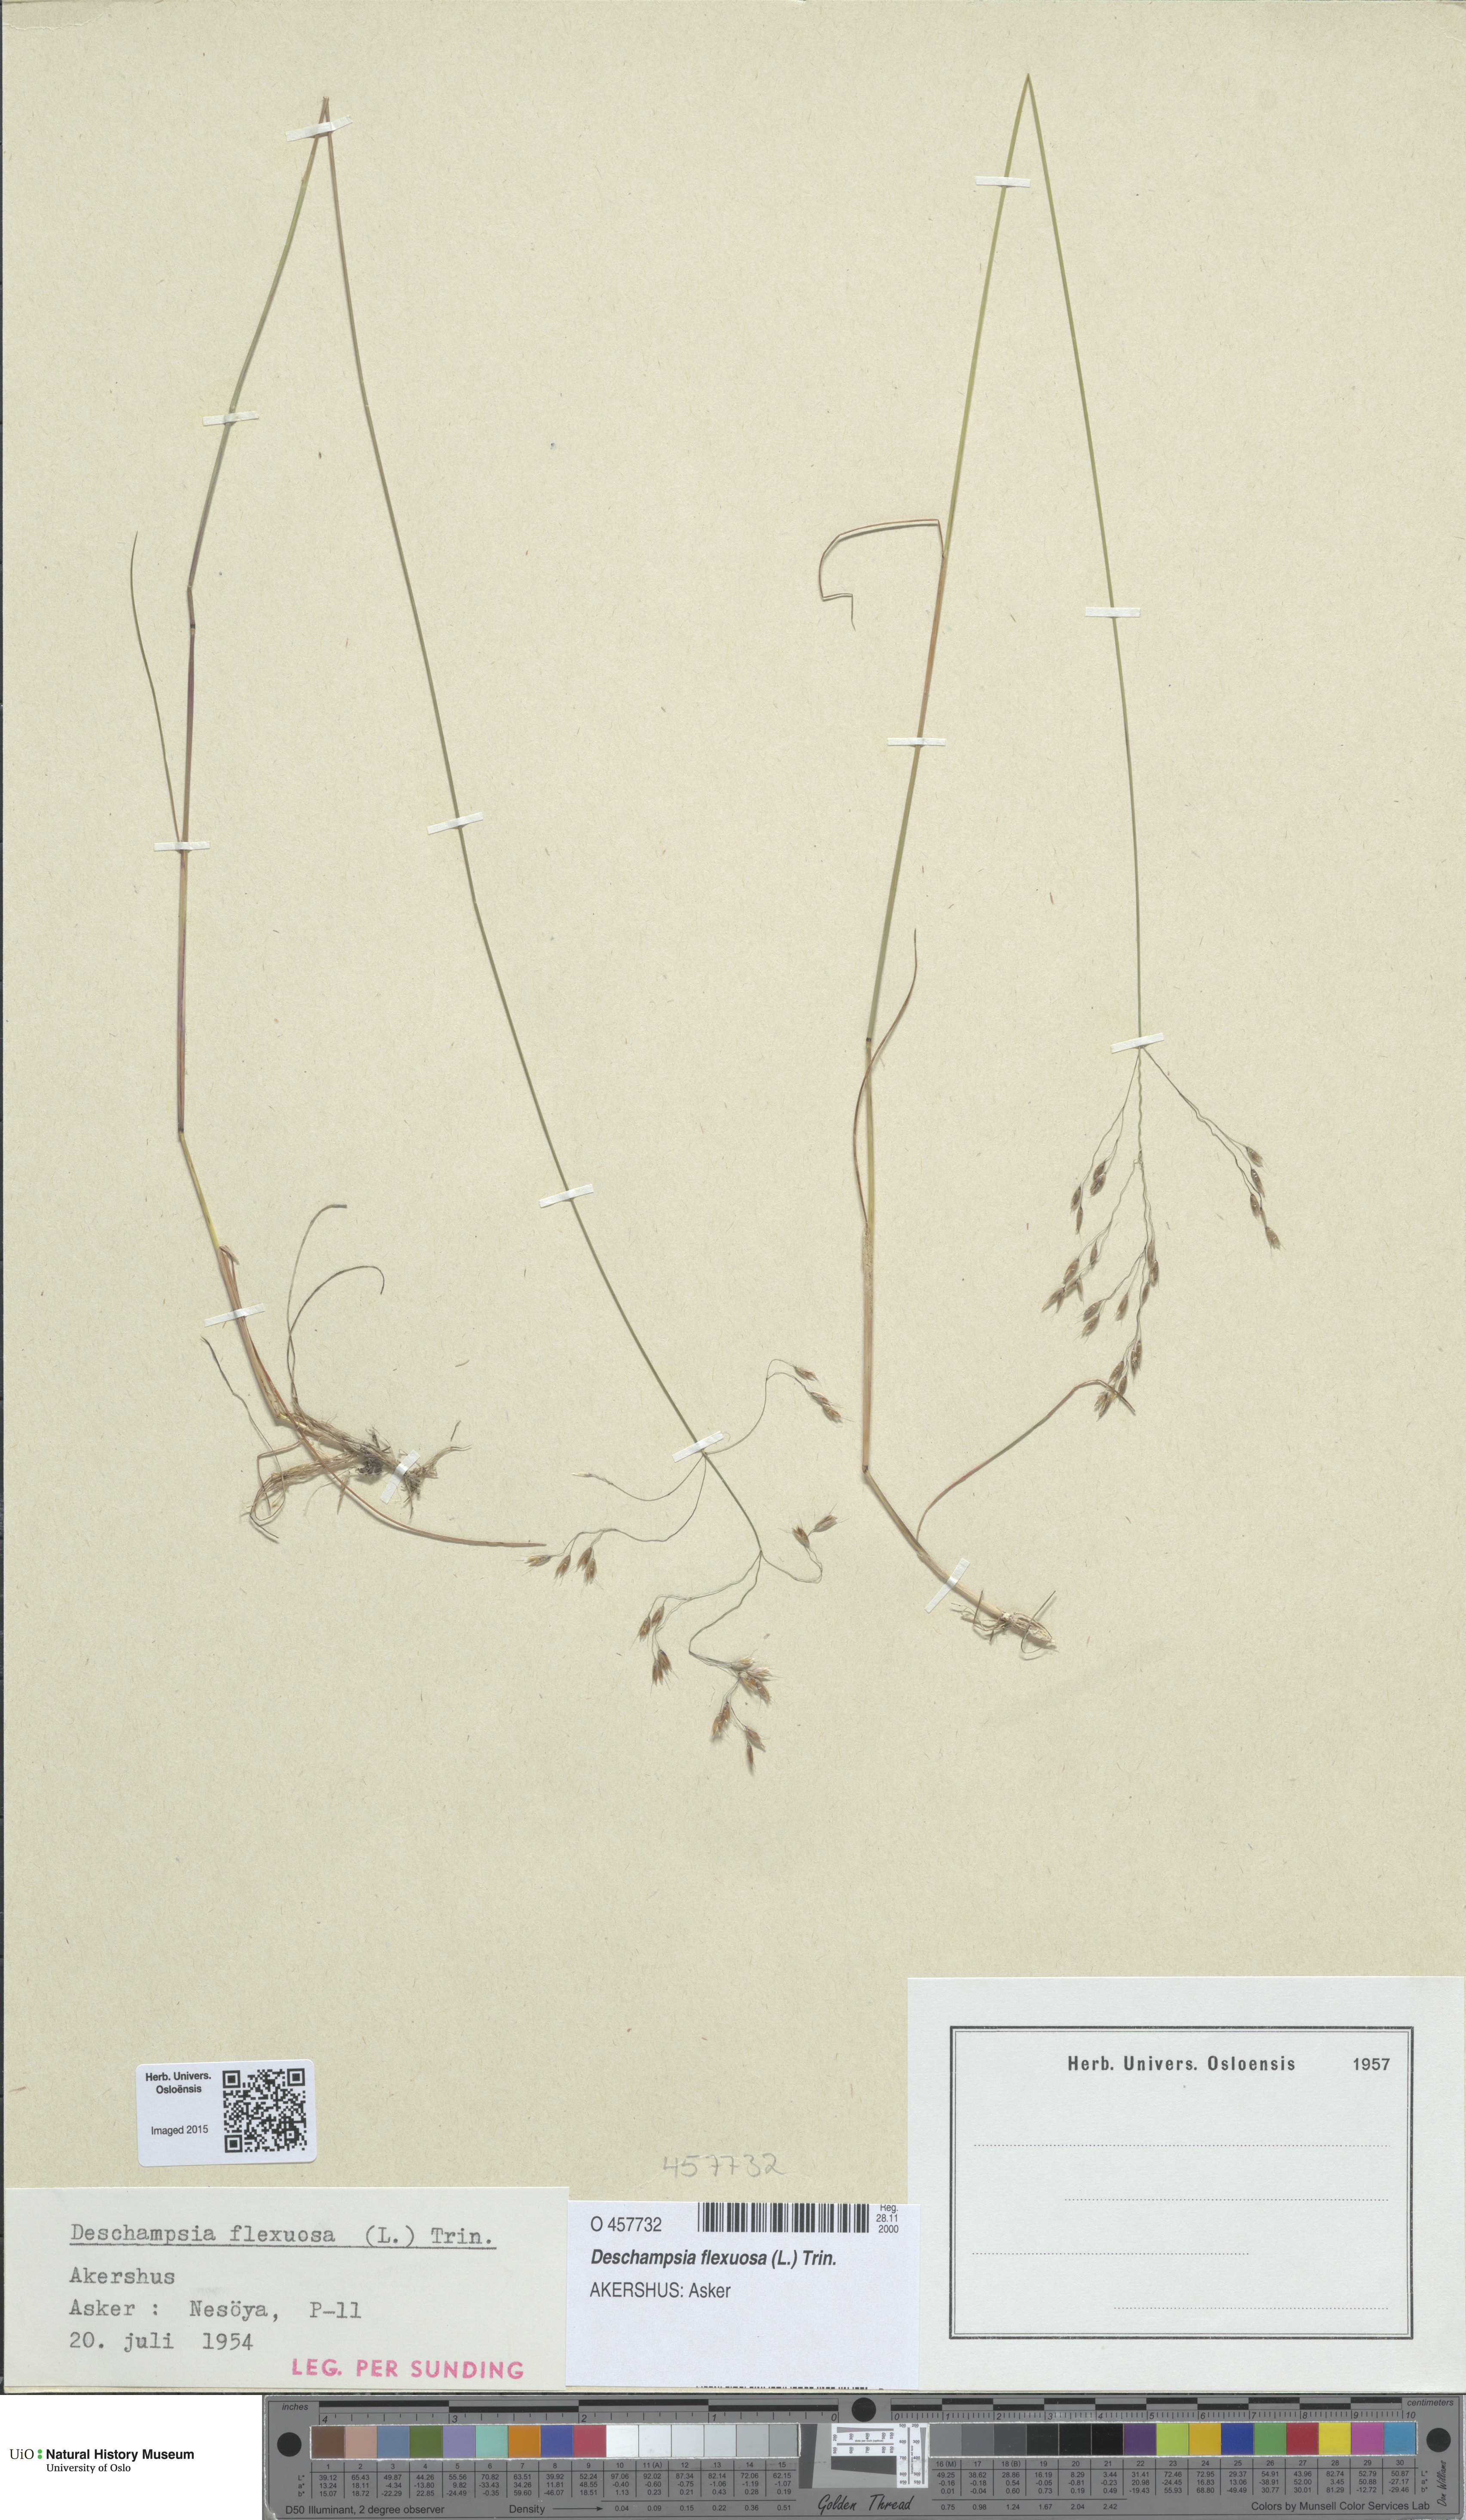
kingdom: Plantae
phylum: Tracheophyta
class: Liliopsida
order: Poales
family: Poaceae
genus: Avenella
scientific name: Avenella flexuosa
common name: Wavy hairgrass
